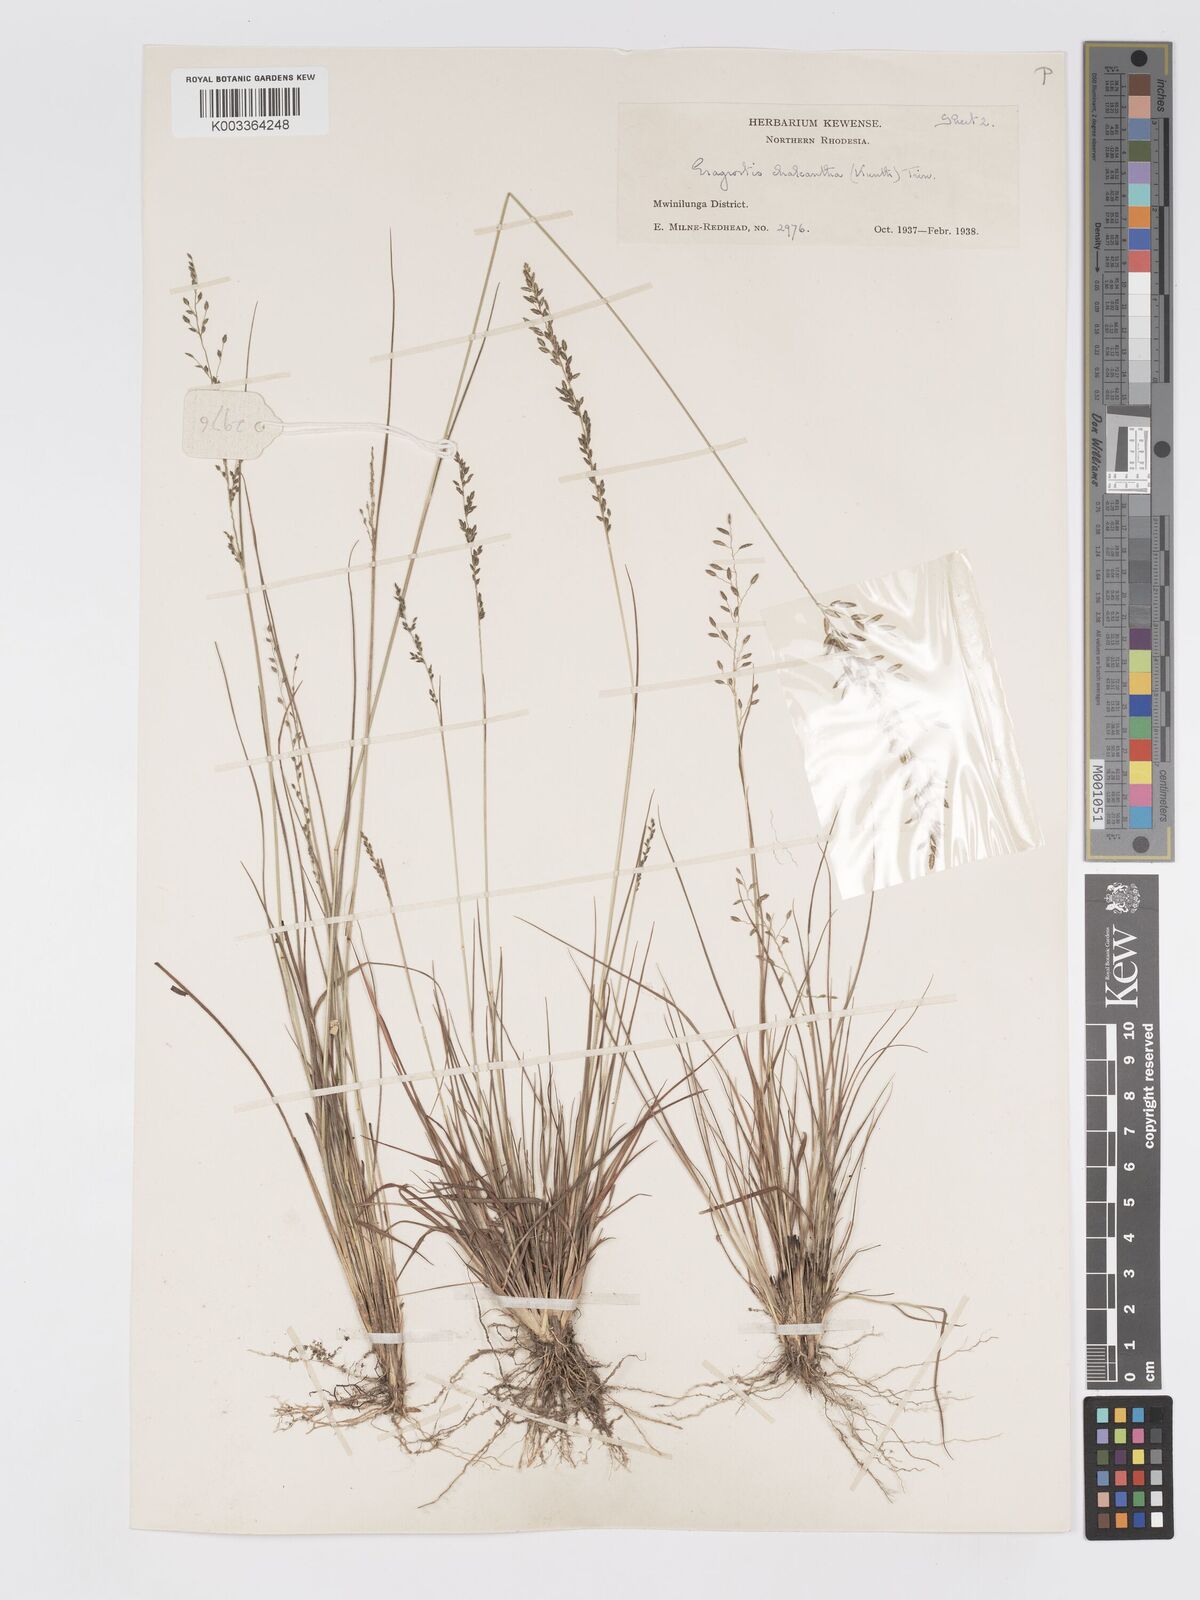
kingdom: Plantae
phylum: Tracheophyta
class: Liliopsida
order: Poales
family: Poaceae
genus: Eragrostis
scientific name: Eragrostis racemosa
